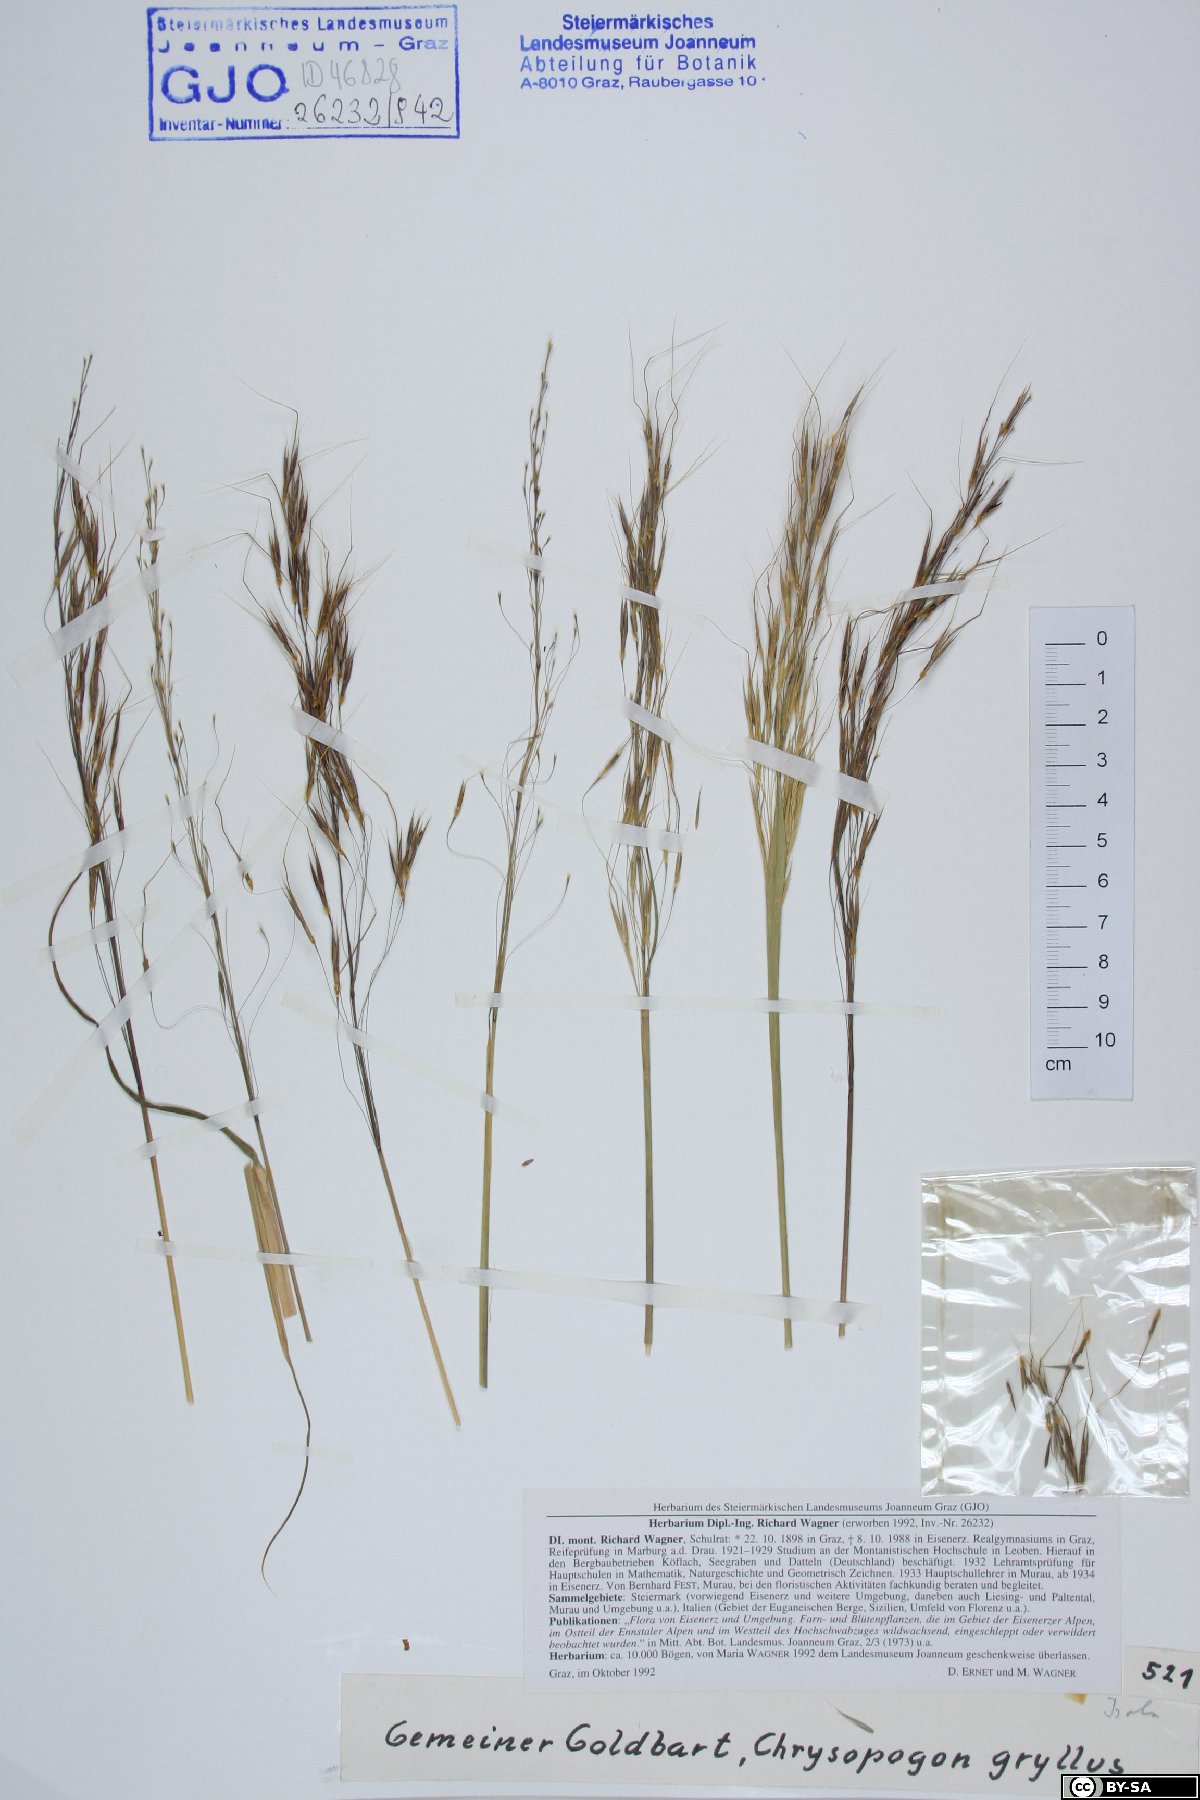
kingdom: Plantae
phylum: Tracheophyta
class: Liliopsida
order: Poales
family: Poaceae
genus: Chrysopogon
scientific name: Chrysopogon gryllus
